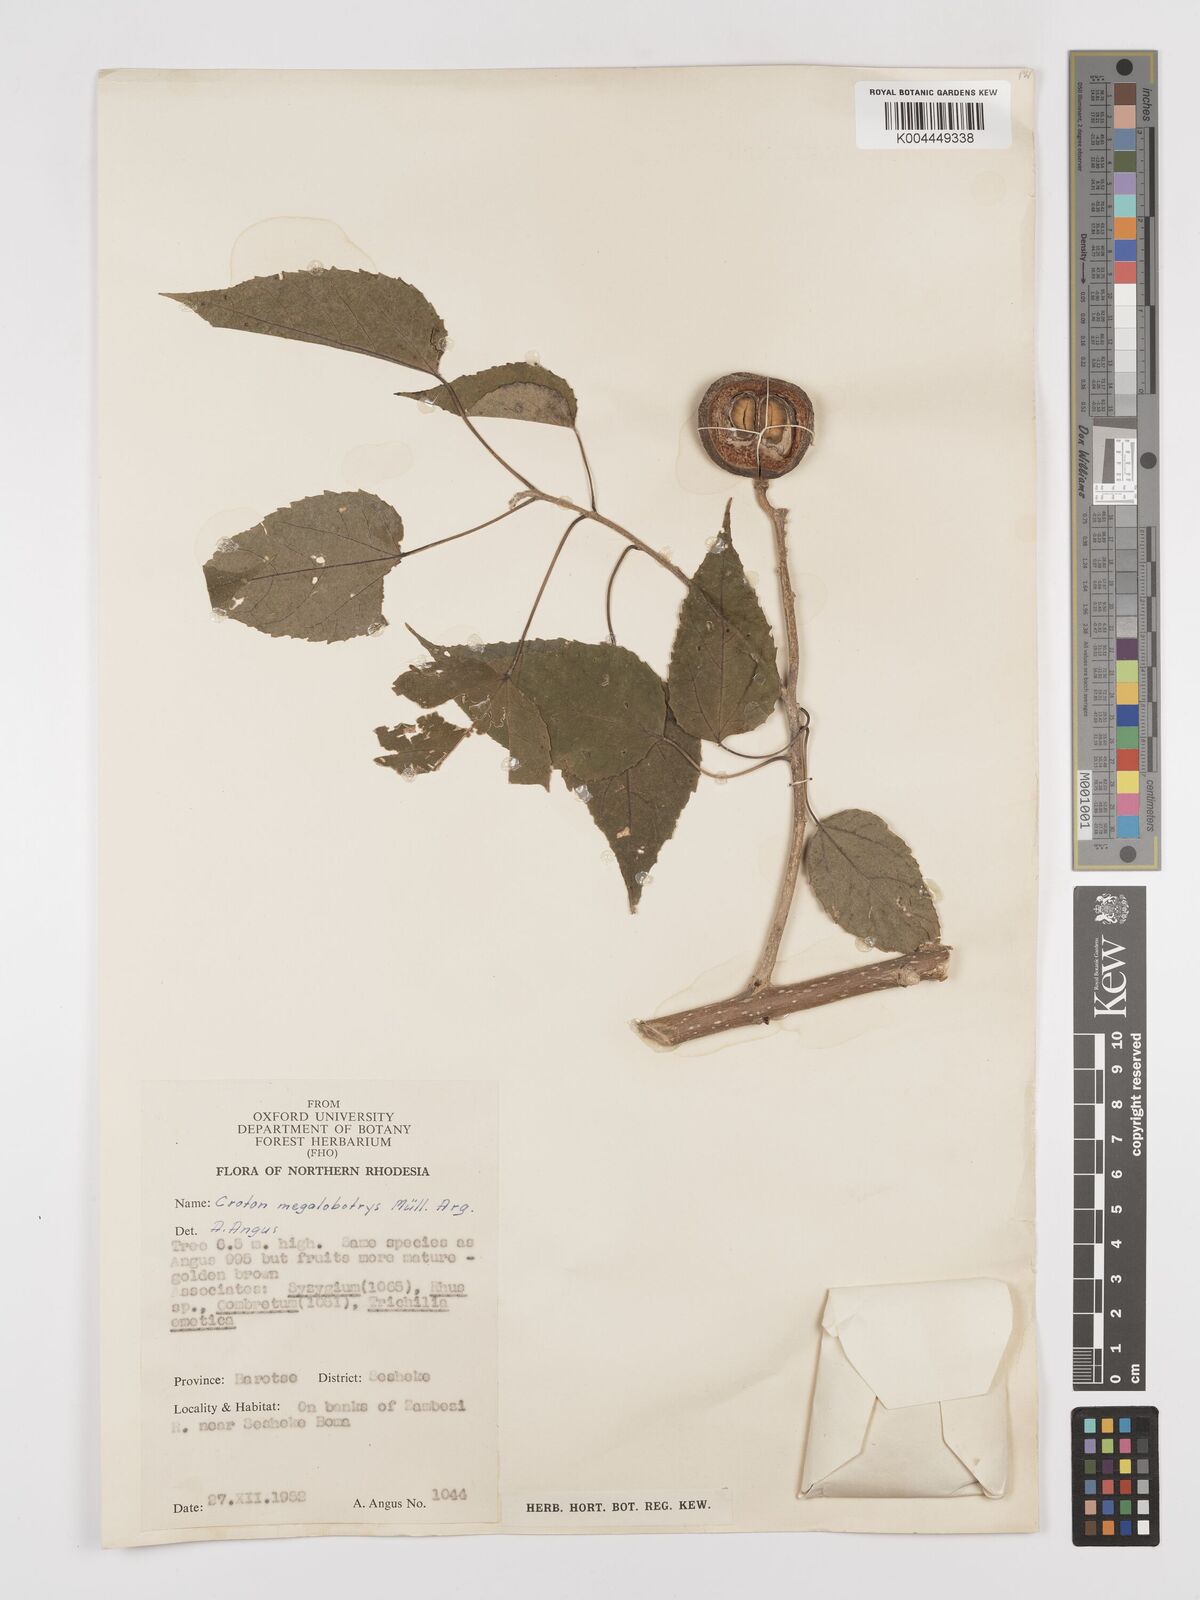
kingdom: Plantae
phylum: Tracheophyta
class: Magnoliopsida
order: Malpighiales
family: Euphorbiaceae
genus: Croton
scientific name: Croton megalobotrys
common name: Large fever berry
